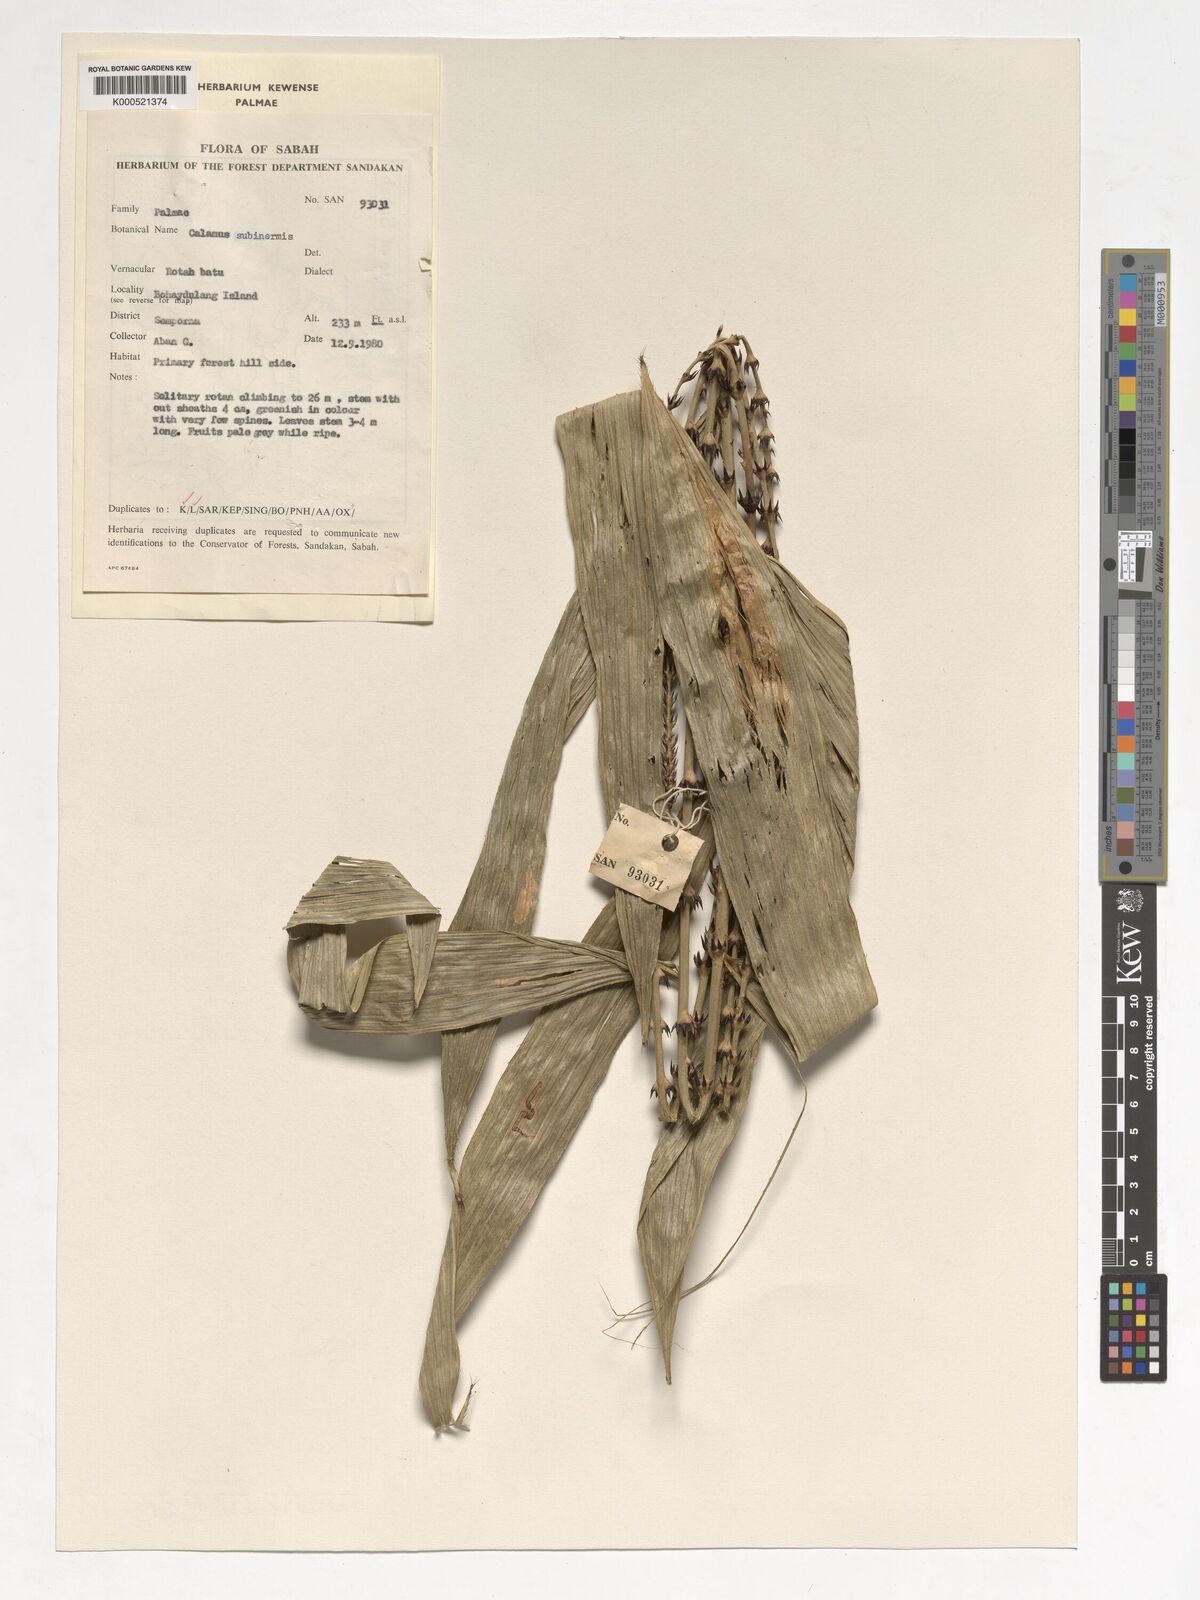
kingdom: Plantae
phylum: Tracheophyta
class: Liliopsida
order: Arecales
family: Arecaceae
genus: Calamus
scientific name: Calamus moseleyanus
